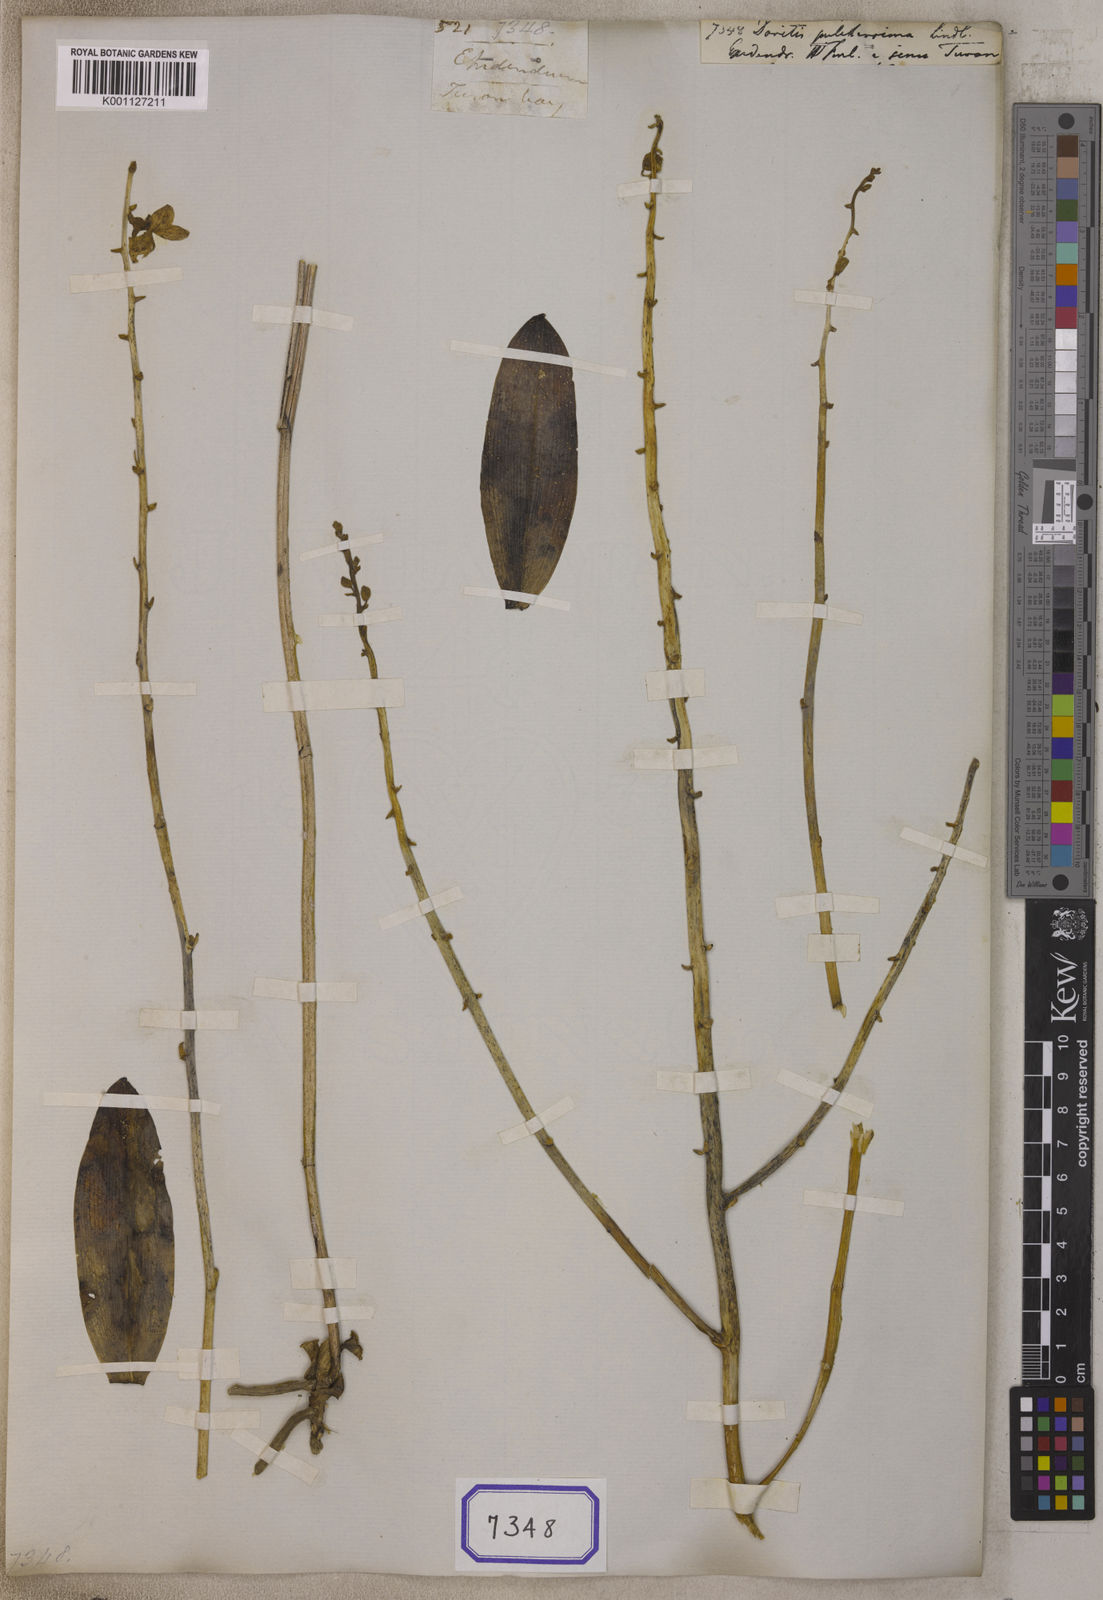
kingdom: Plantae
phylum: Tracheophyta
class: Liliopsida
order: Asparagales
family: Orchidaceae
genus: Phalaenopsis
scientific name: Phalaenopsis pulcherrima
